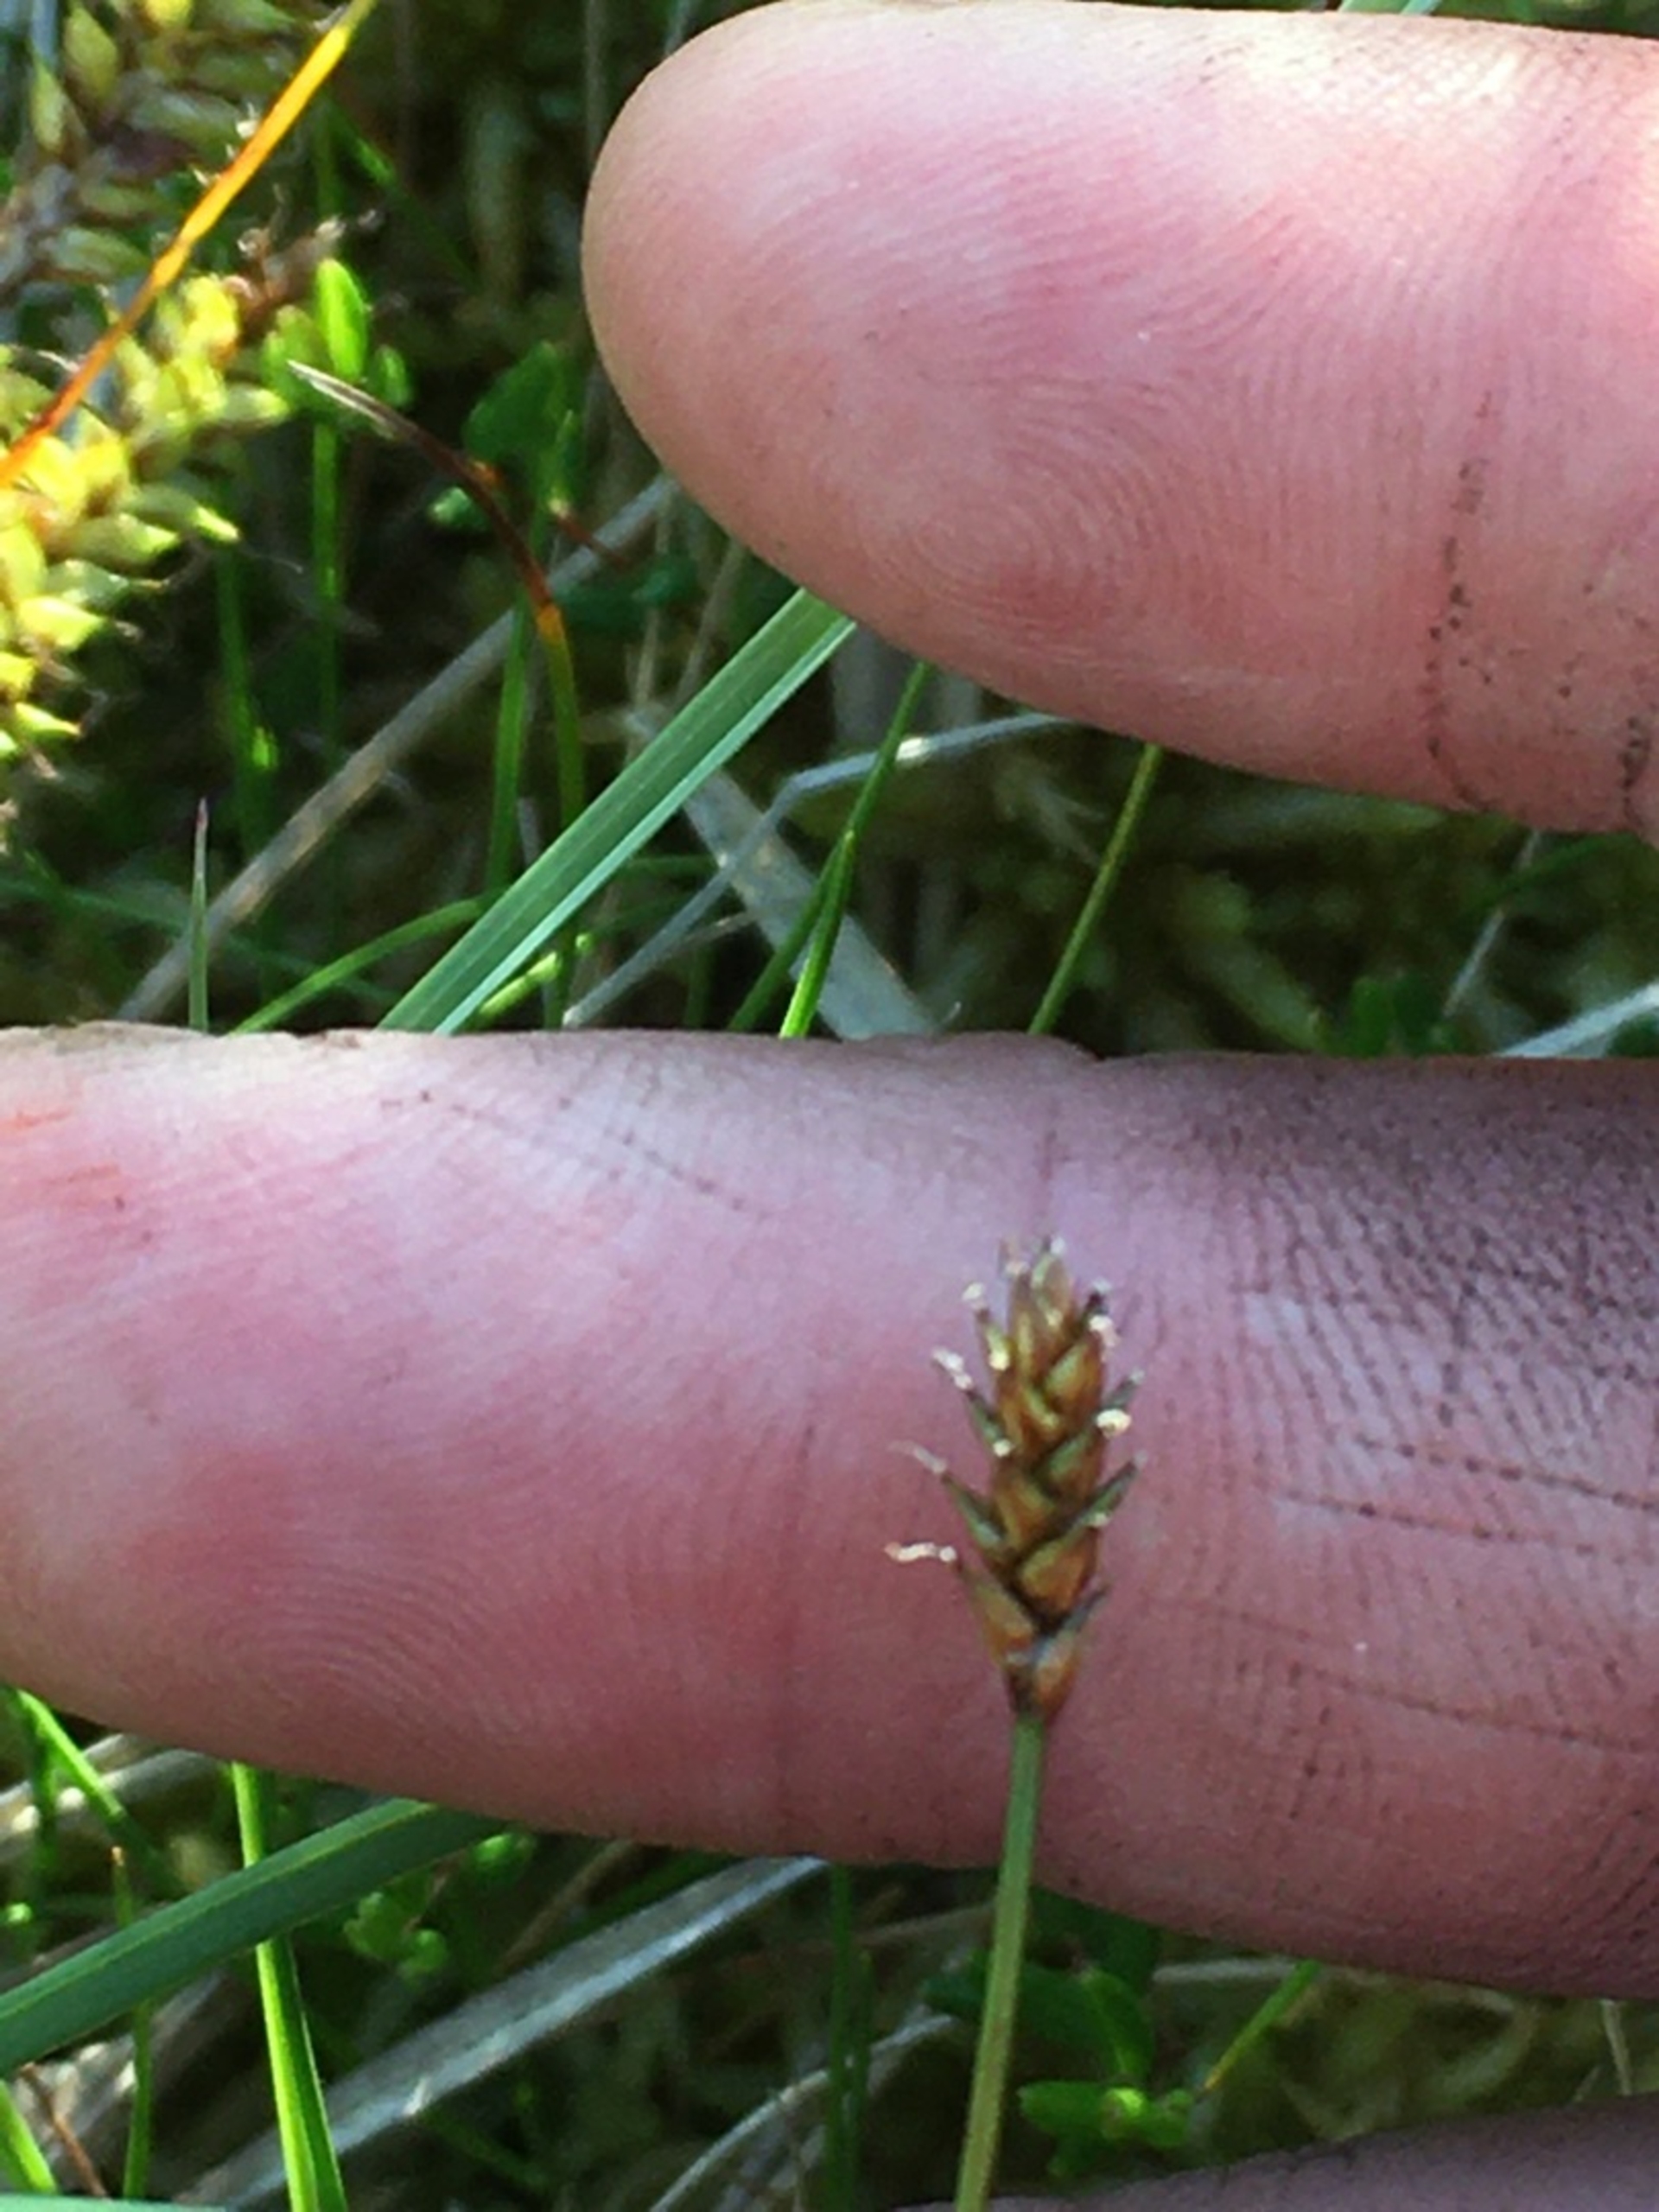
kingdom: Plantae
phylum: Tracheophyta
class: Liliopsida
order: Poales
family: Cyperaceae
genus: Carex
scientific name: Carex dioica
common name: Tvebo star
